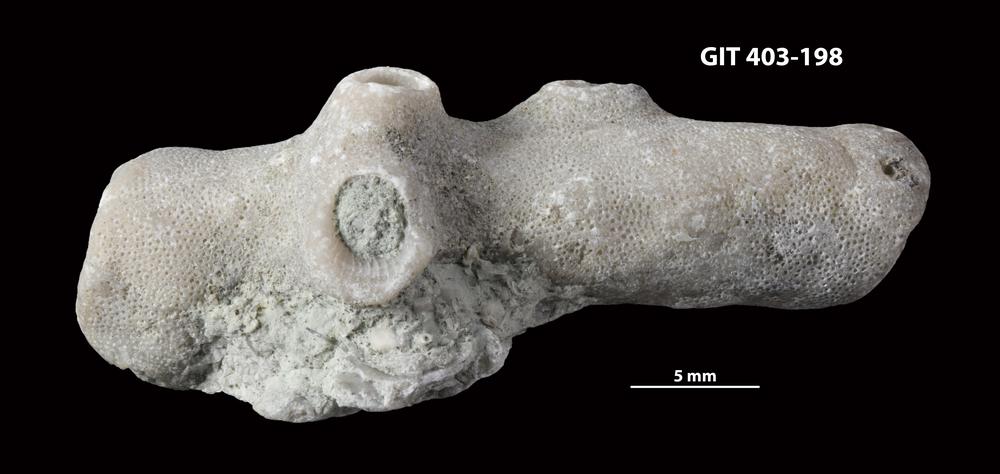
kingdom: Animalia
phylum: Bryozoa
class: Stenolaemata
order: Cystoporida
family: Fistuliporidae
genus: Fistulipora
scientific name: Fistulipora przhidolensis
